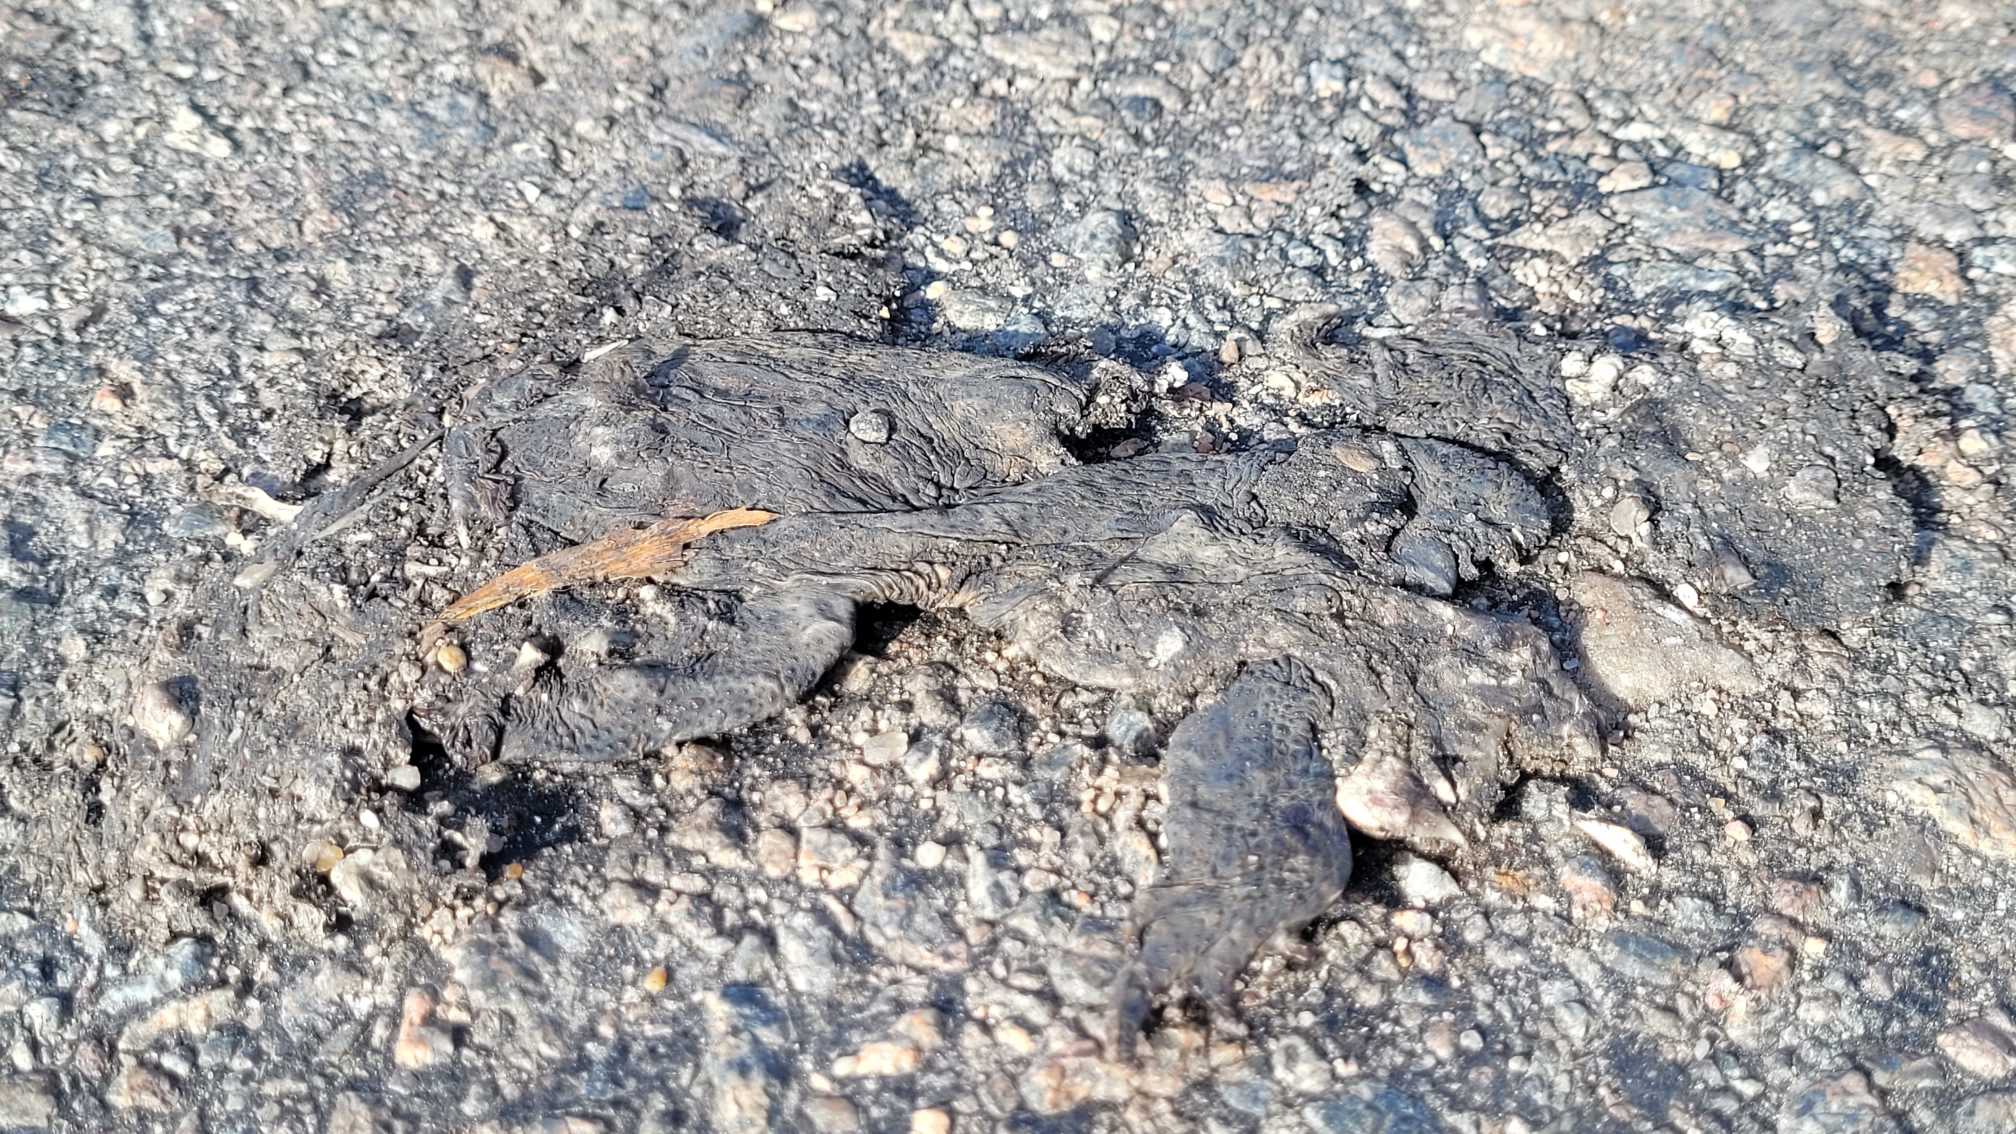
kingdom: Animalia
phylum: Chordata
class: Amphibia
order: Anura
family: Bufonidae
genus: Bufo
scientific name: Bufo bufo
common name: Skrubtudse
